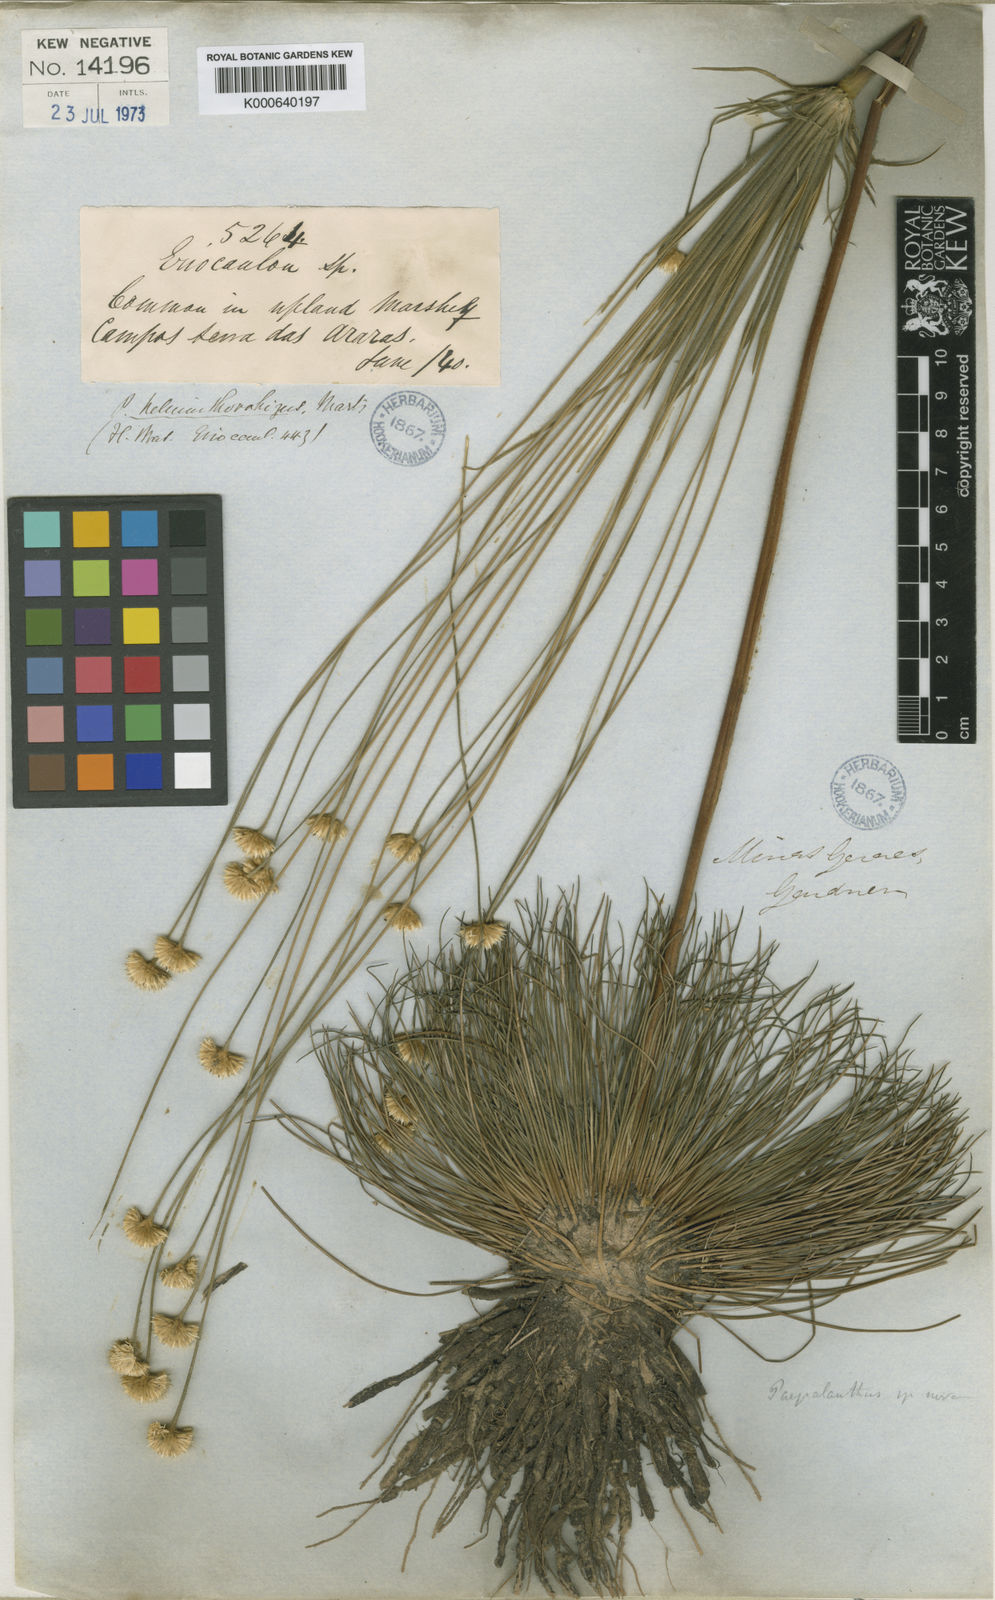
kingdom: Plantae
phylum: Tracheophyta
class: Liliopsida
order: Poales
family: Eriocaulaceae
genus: Syngonanthus
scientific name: Syngonanthus
